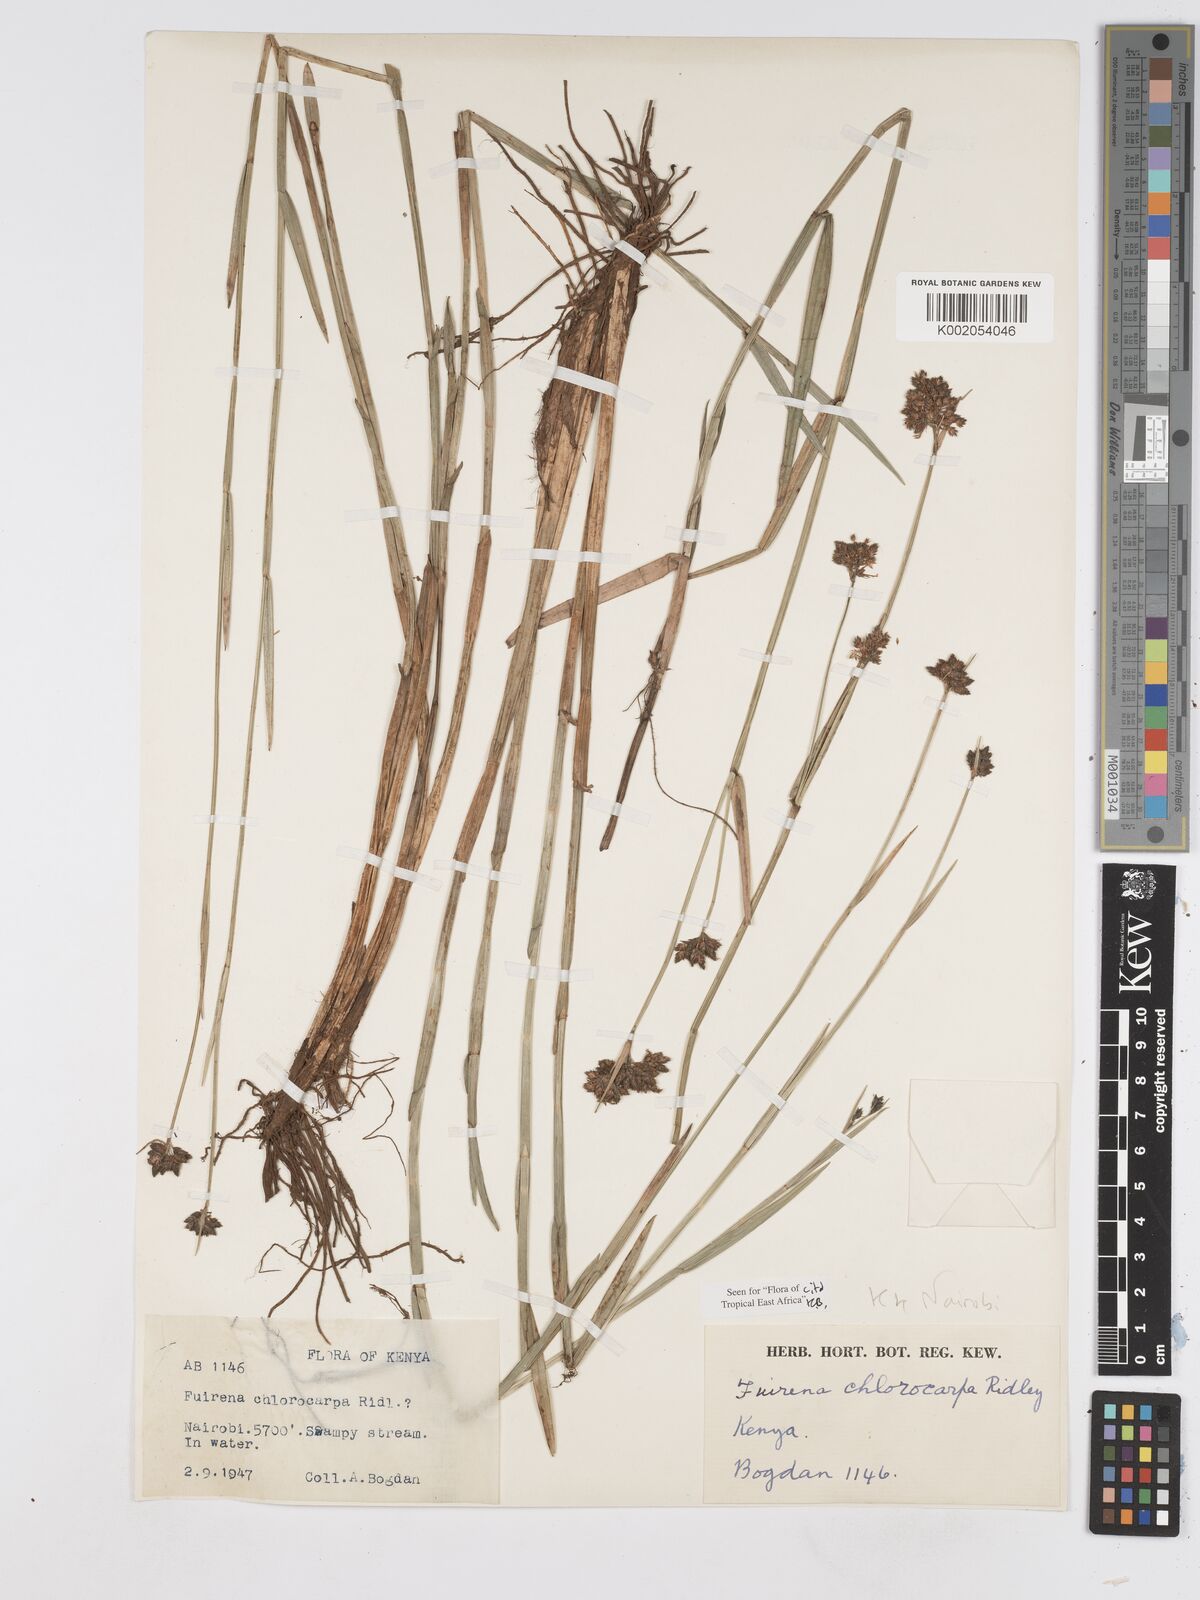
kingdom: Plantae
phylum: Tracheophyta
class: Liliopsida
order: Poales
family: Cyperaceae
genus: Fuirena
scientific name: Fuirena stricta
